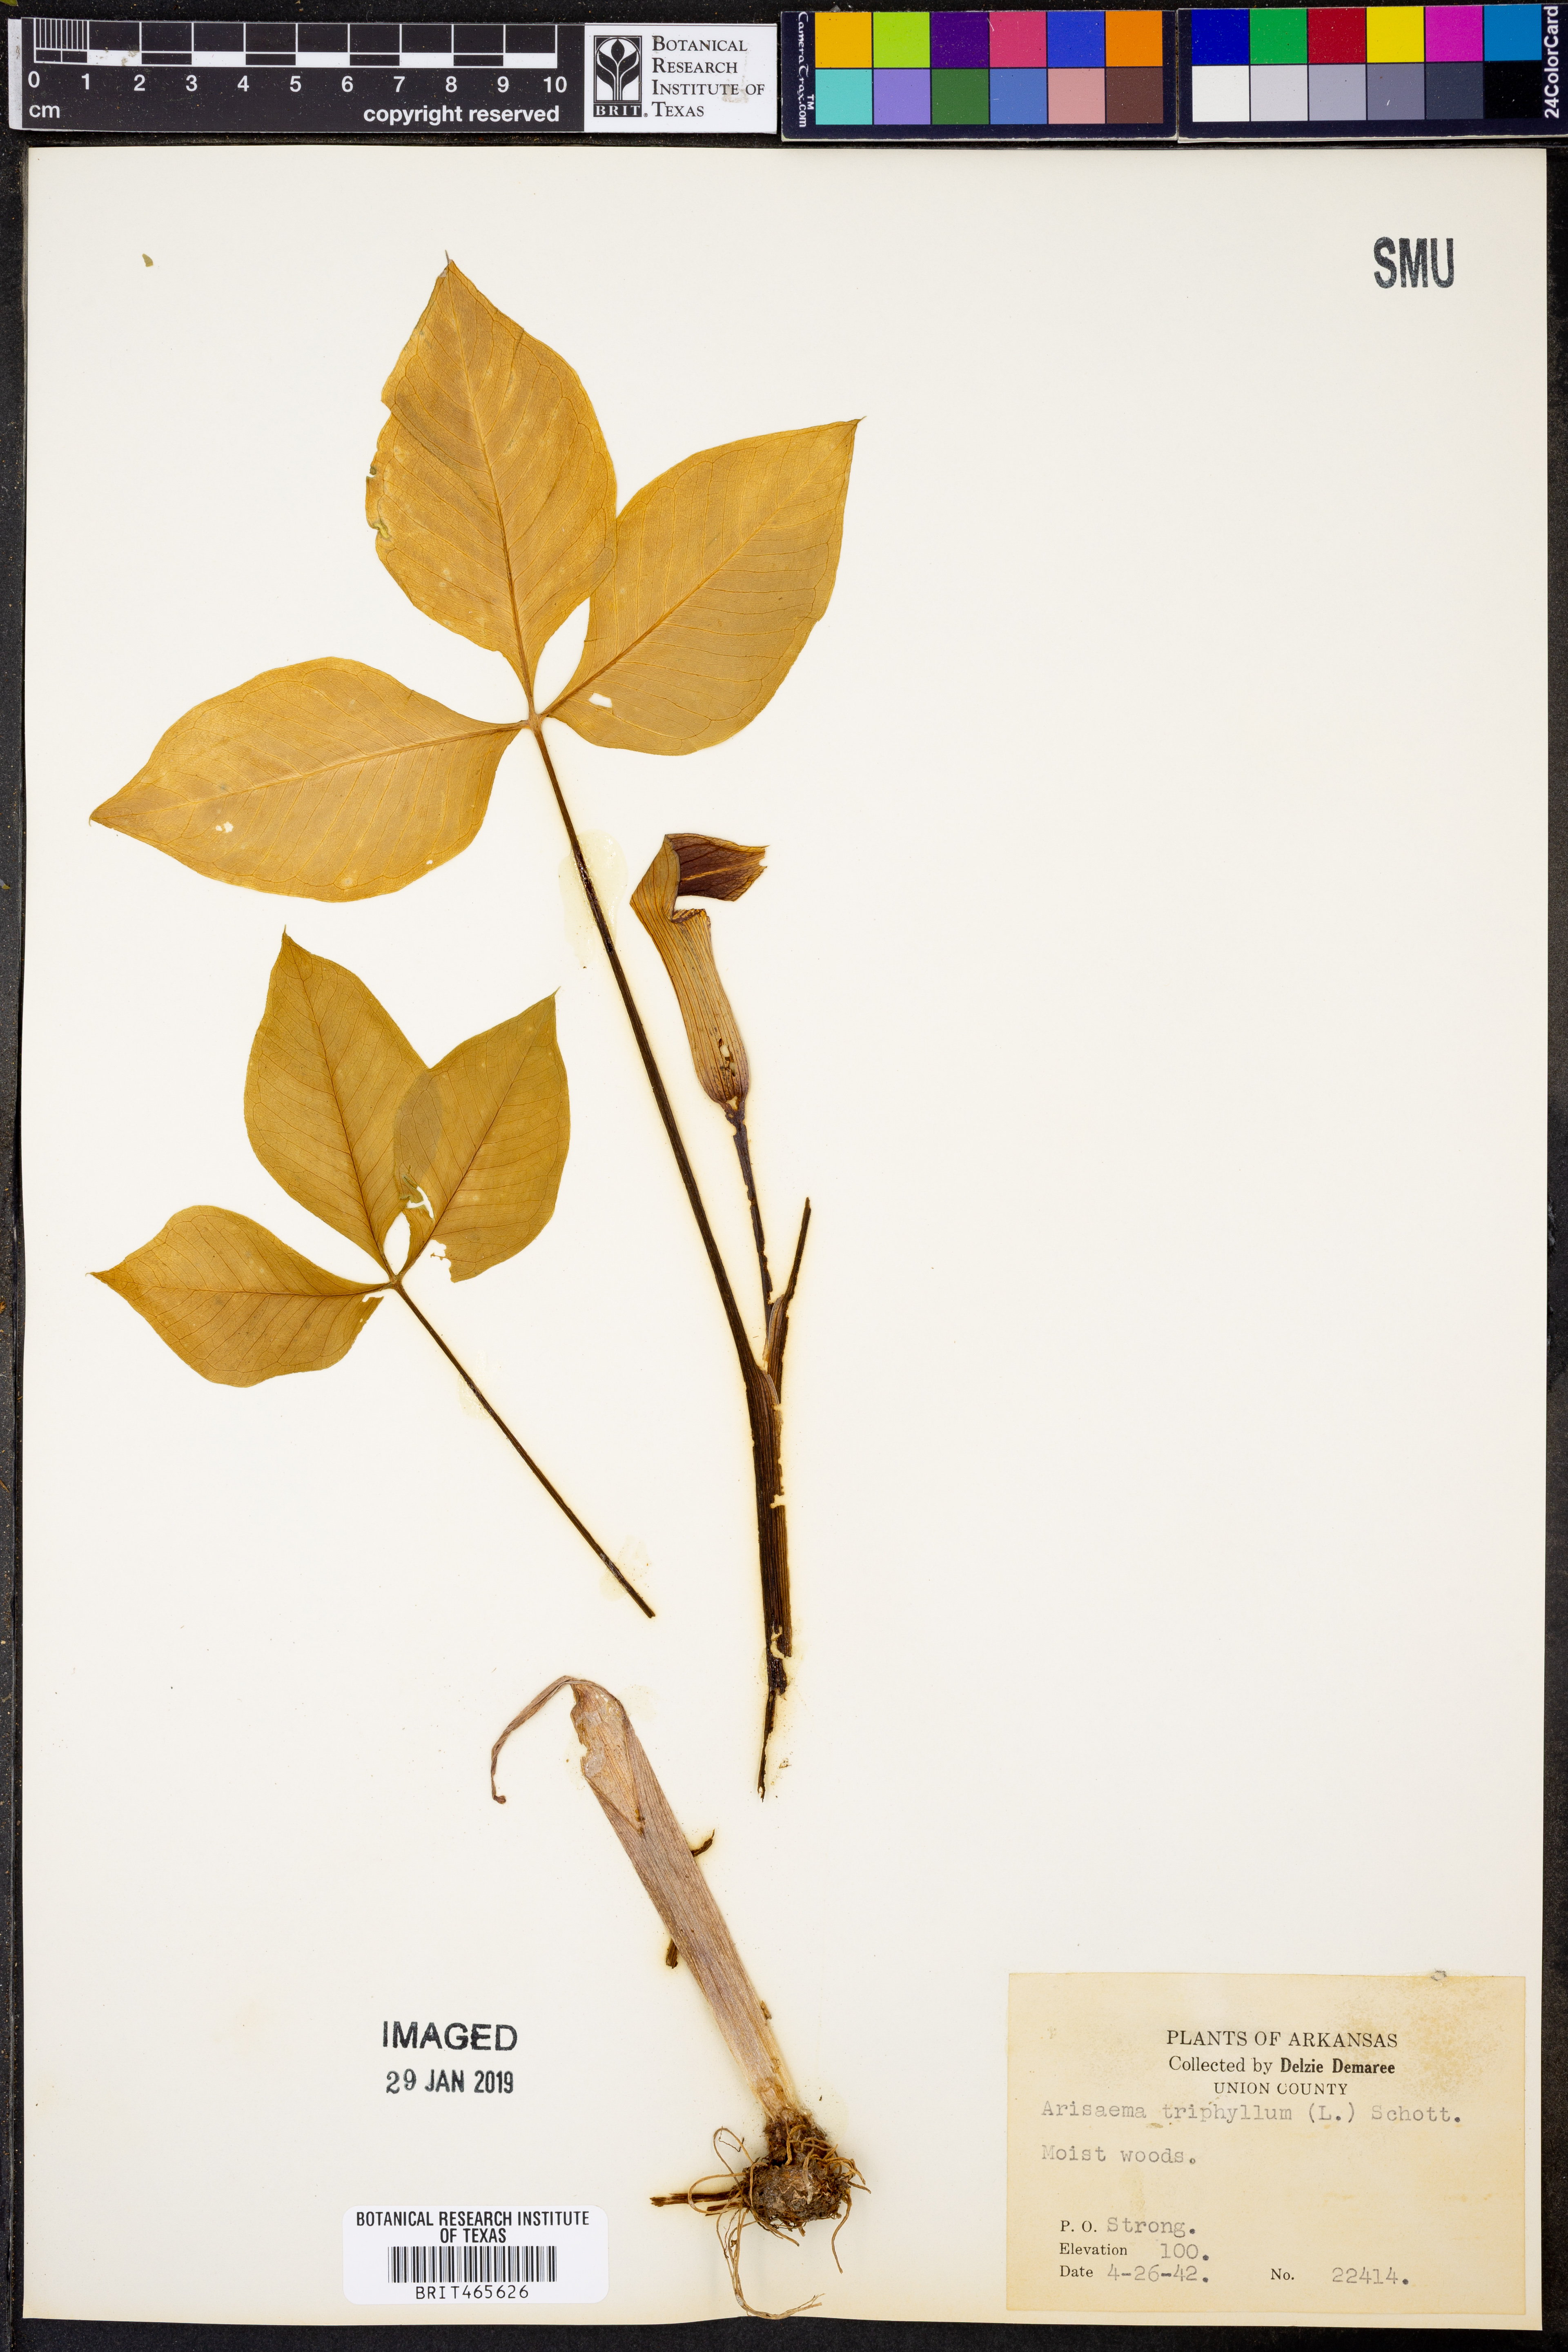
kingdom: Plantae
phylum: Tracheophyta
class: Liliopsida
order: Alismatales
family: Araceae
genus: Arisaema
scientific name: Arisaema triphyllum
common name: Jack-in-the-pulpit
